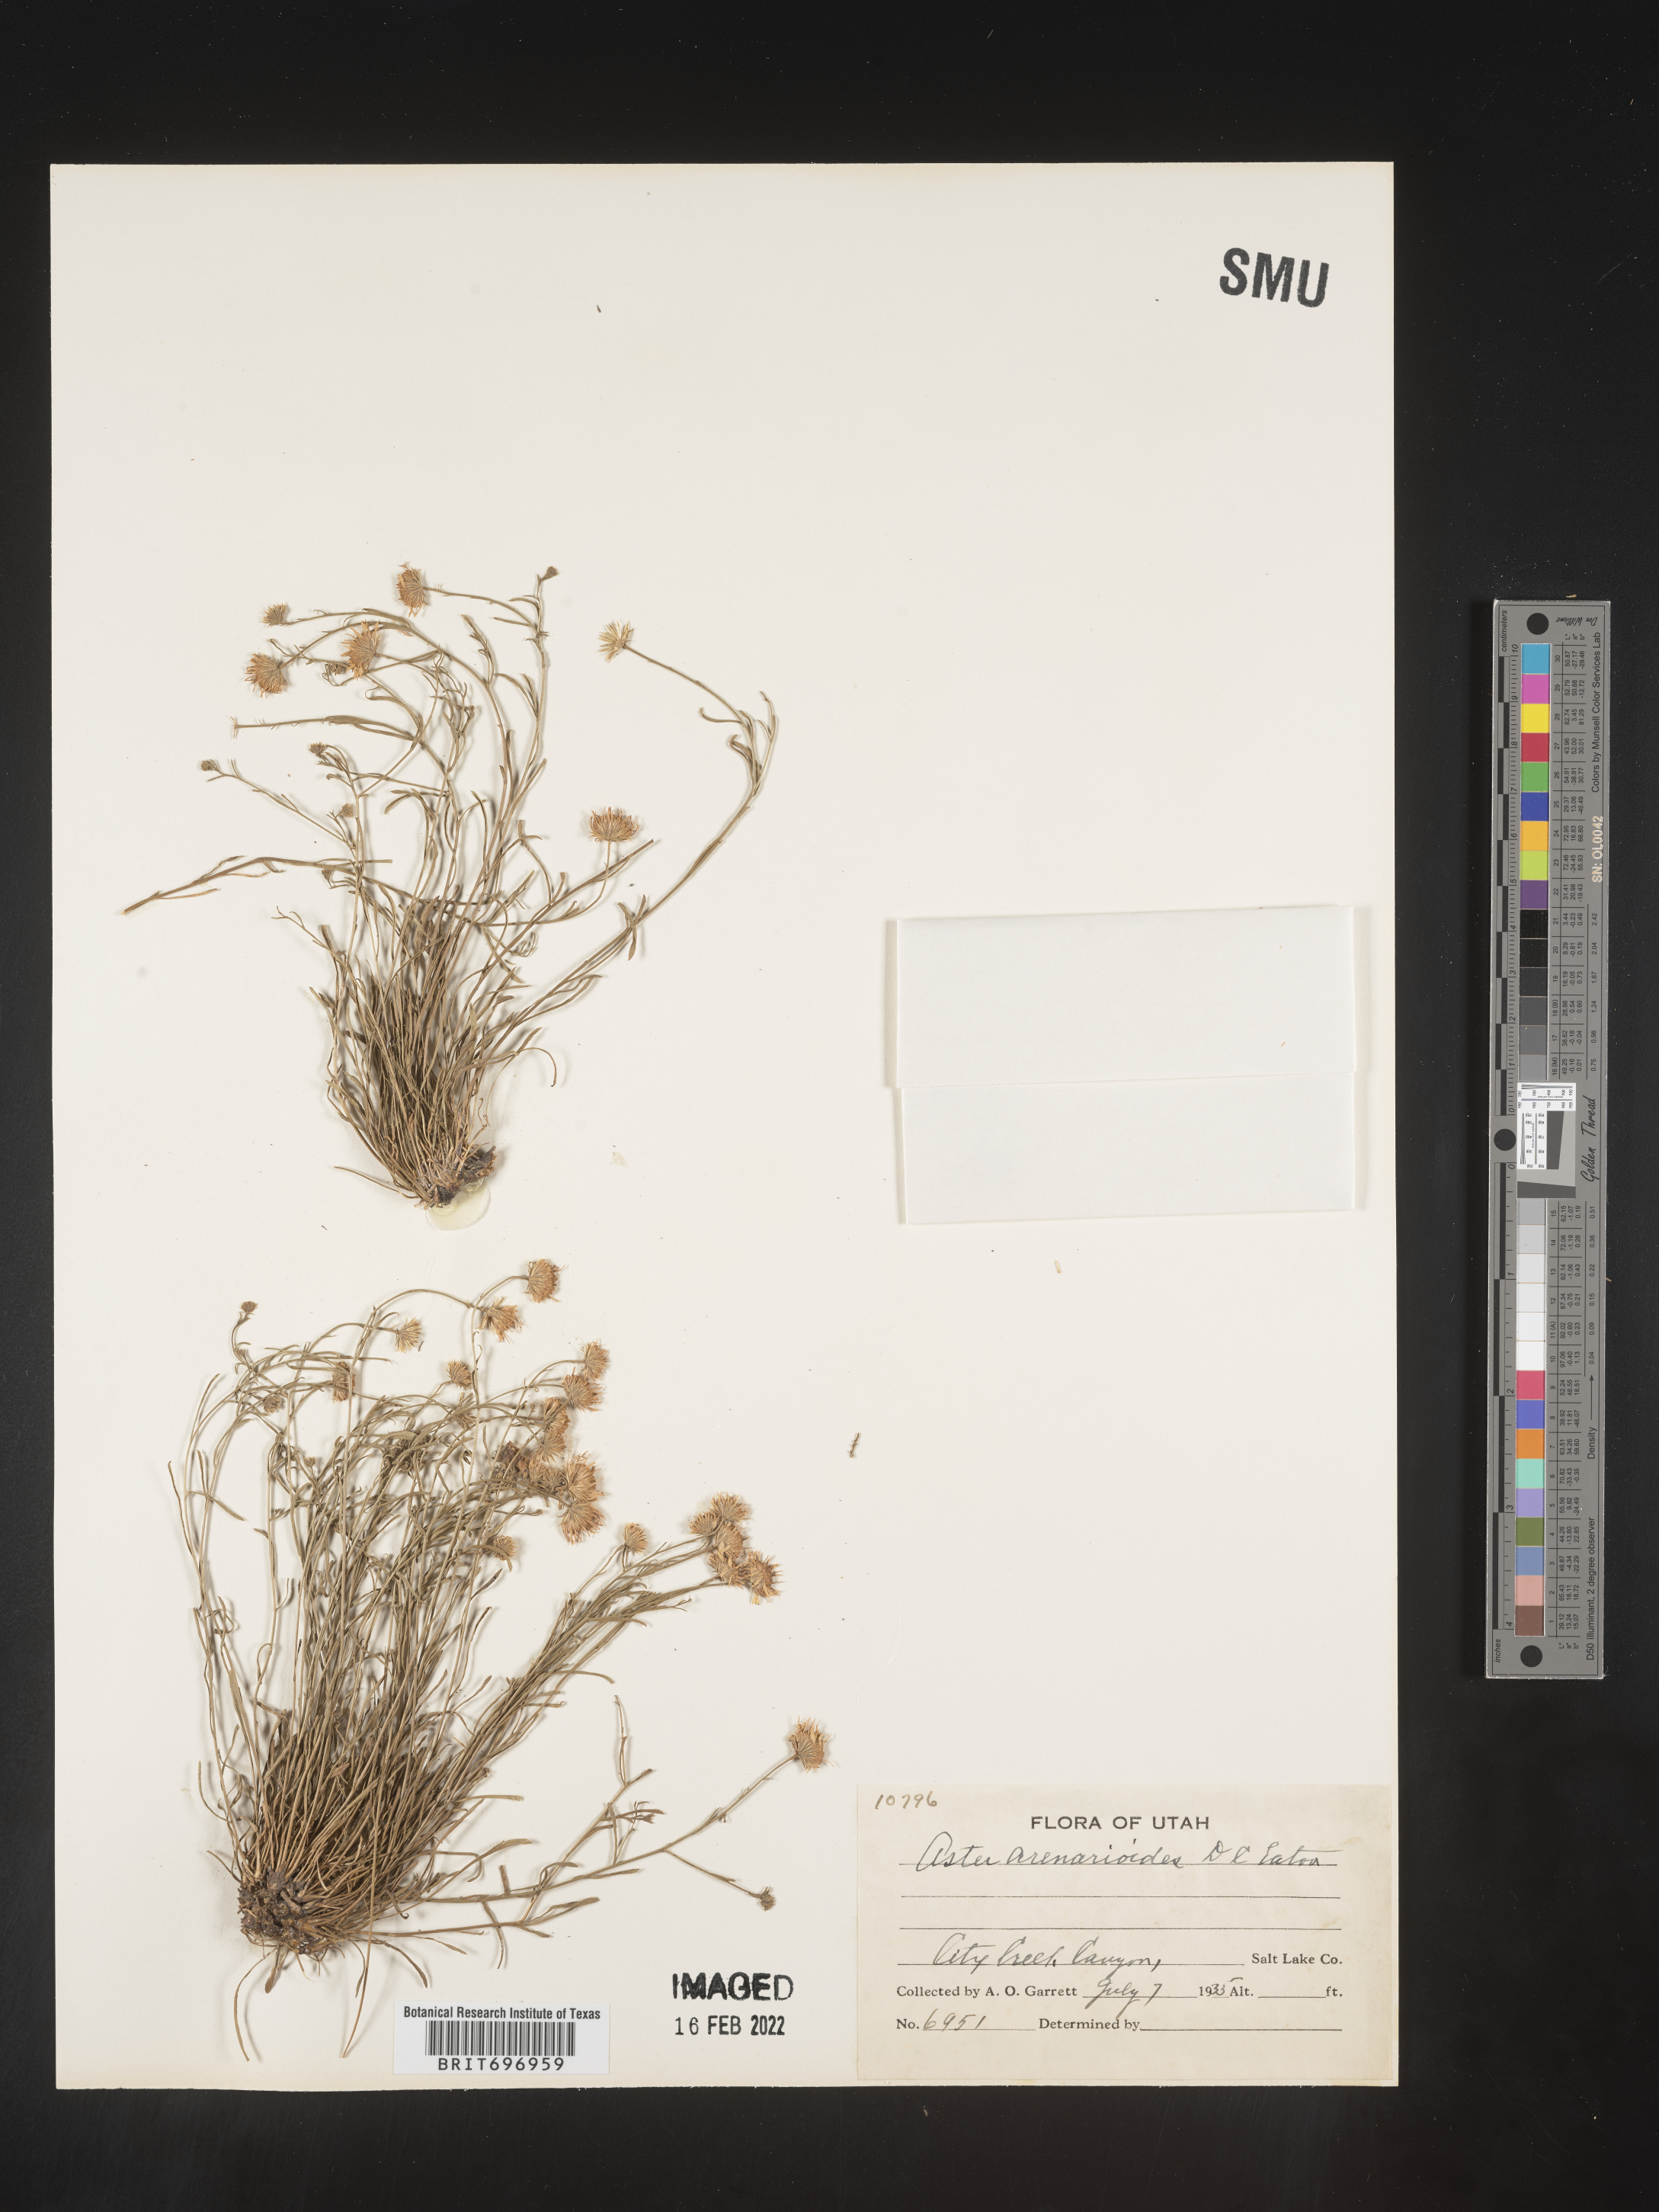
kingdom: Plantae
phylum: Tracheophyta
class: Magnoliopsida
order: Asterales
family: Asteraceae
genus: Erigeron
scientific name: Erigeron arenarioides
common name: Wasatch fleabane
